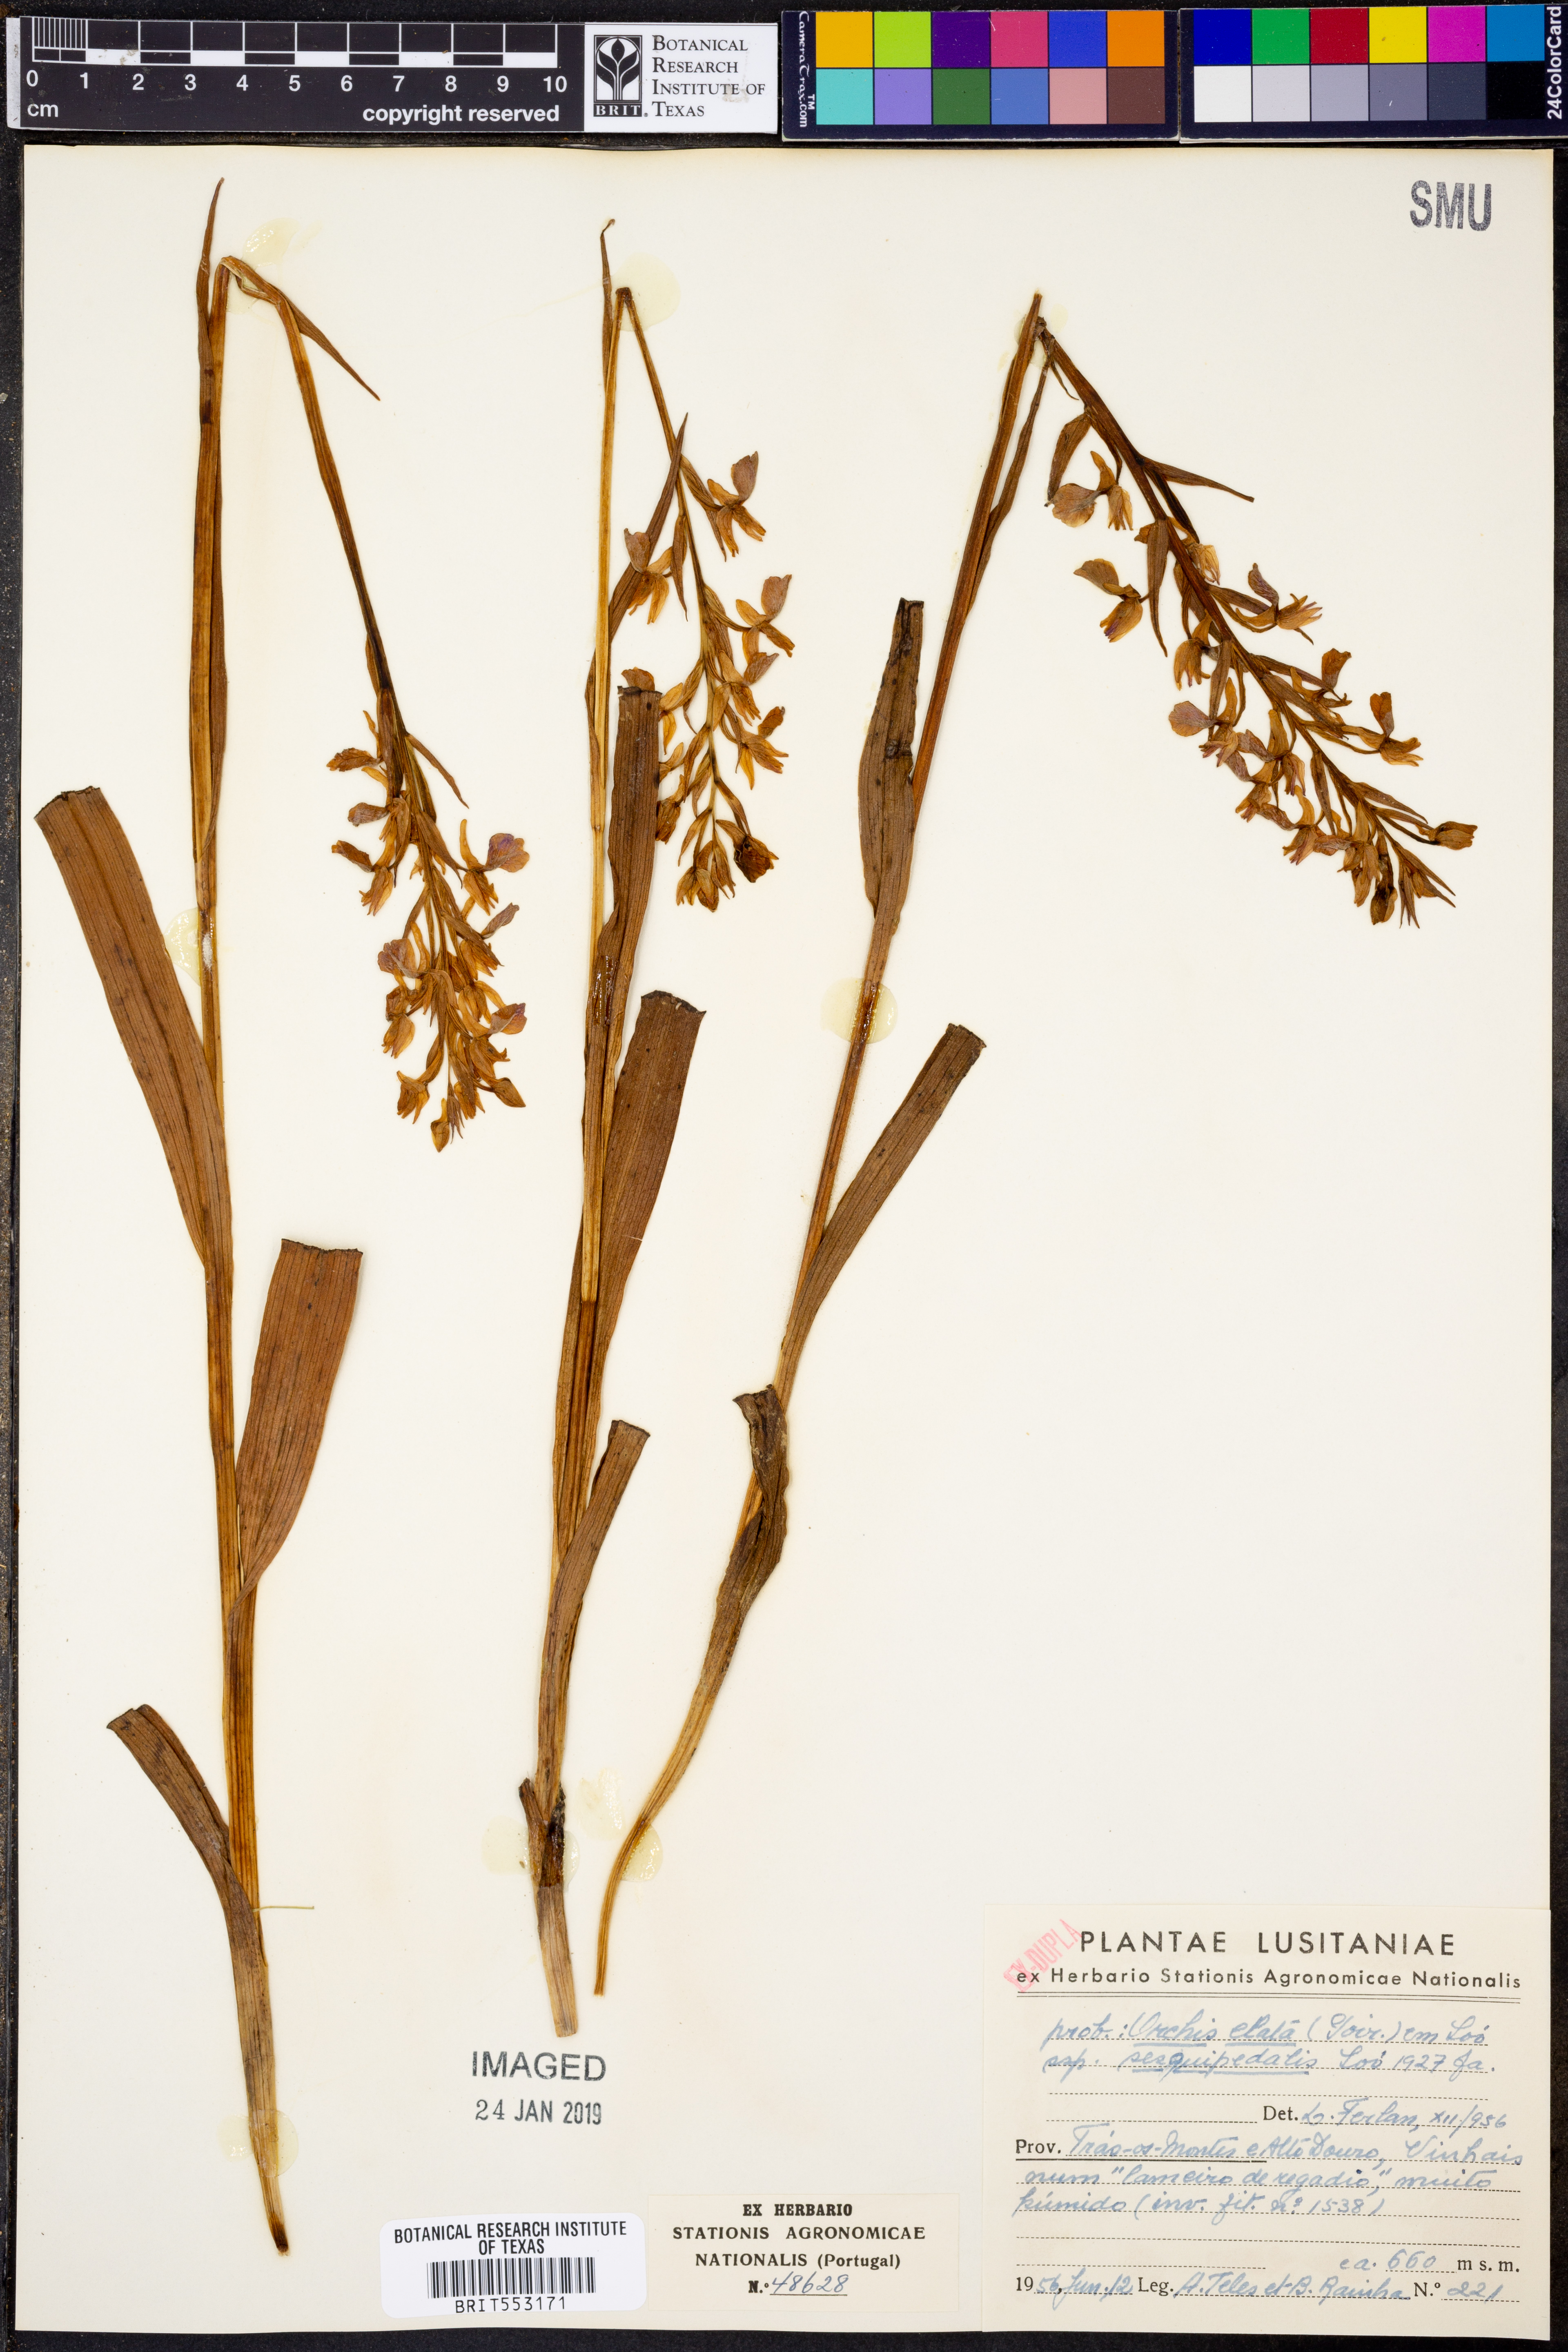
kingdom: Plantae
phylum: Tracheophyta
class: Liliopsida
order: Asparagales
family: Orchidaceae
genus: Dactylorhiza
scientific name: Dactylorhiza elata
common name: Stately dactylorhiza
